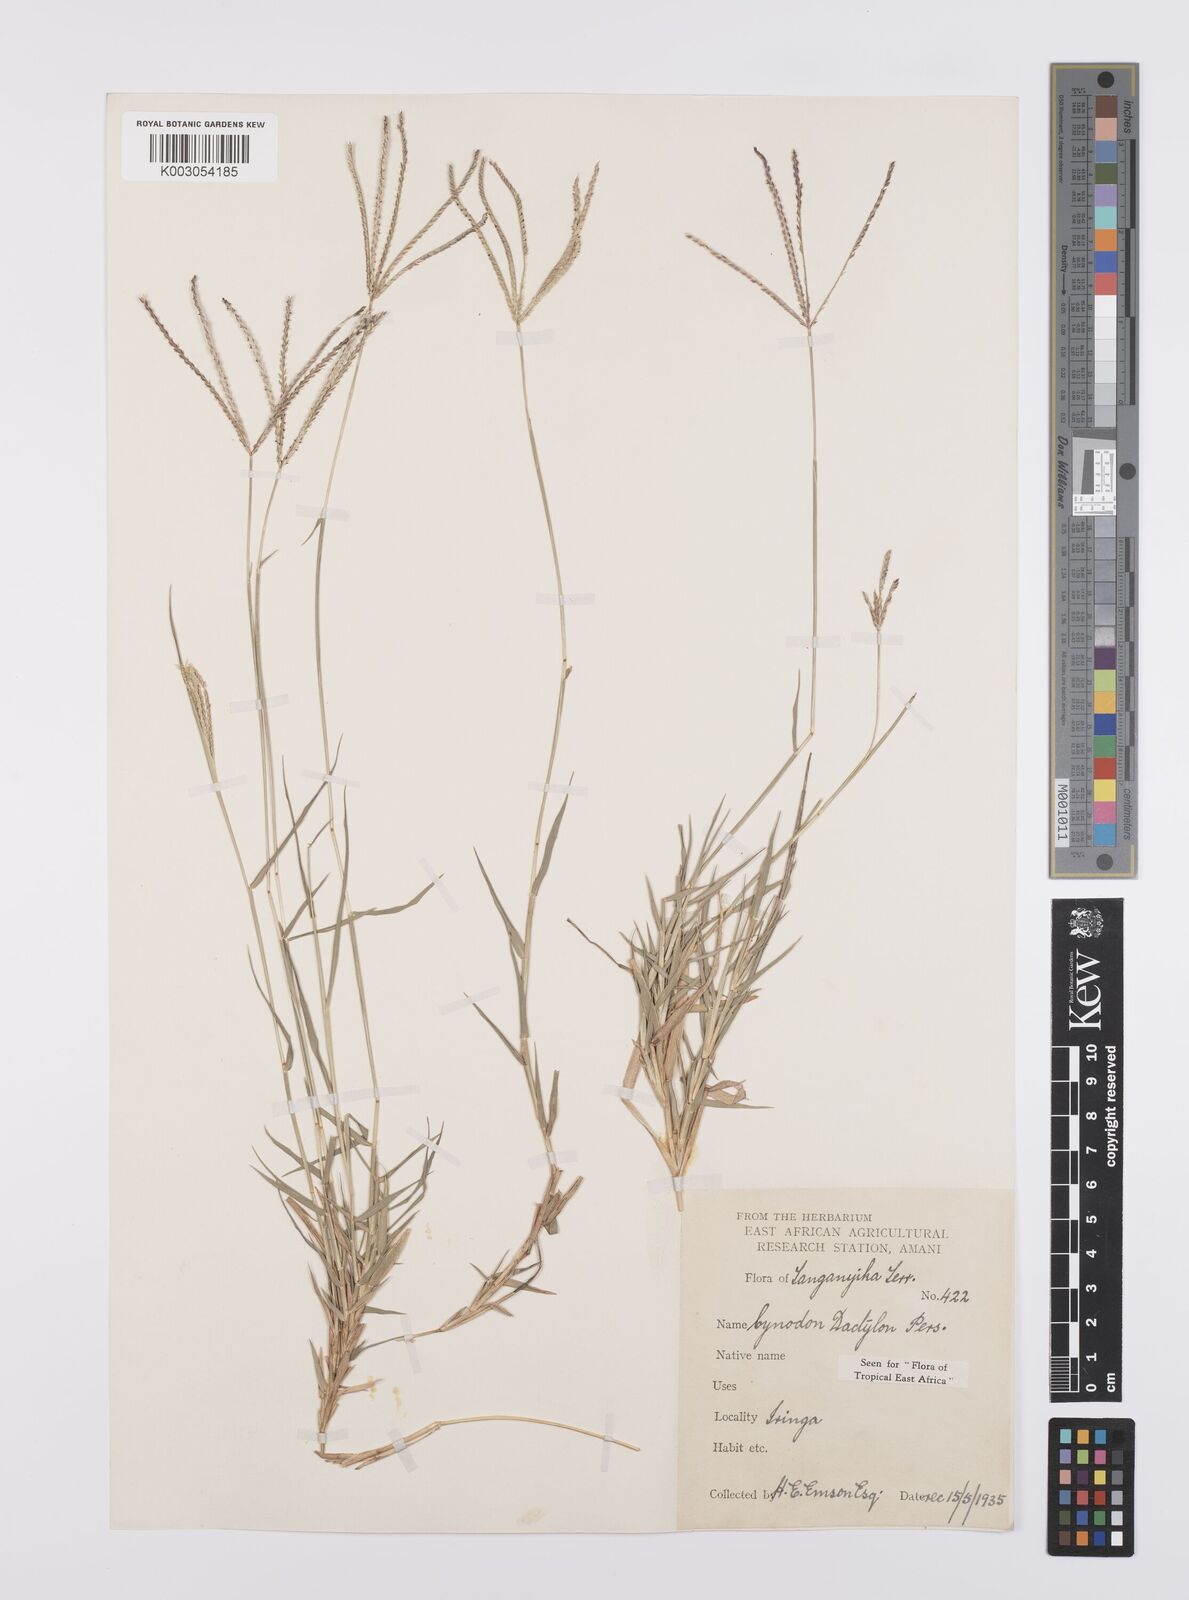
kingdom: Plantae
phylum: Tracheophyta
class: Liliopsida
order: Poales
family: Poaceae
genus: Cynodon
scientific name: Cynodon dactylon
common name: Bermuda grass
